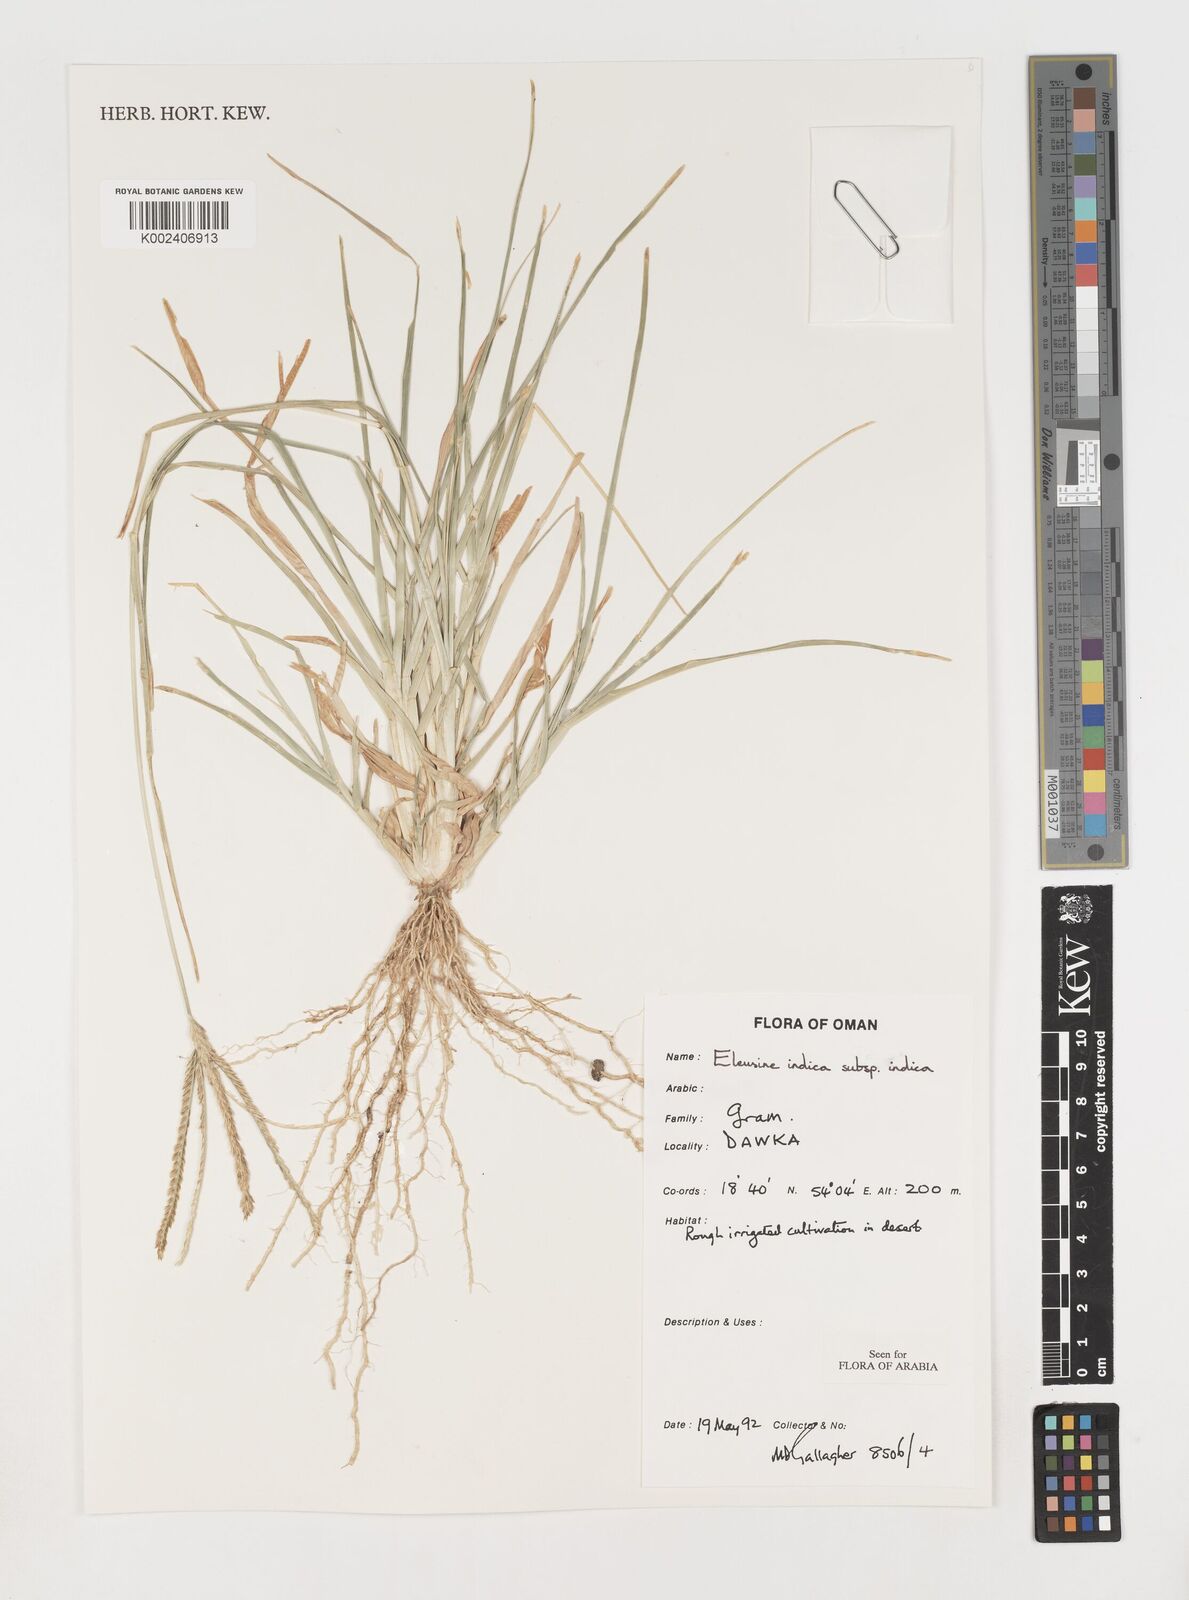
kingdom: Plantae
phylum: Tracheophyta
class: Liliopsida
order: Poales
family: Poaceae
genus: Eleusine
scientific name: Eleusine indica
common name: Yard-grass
